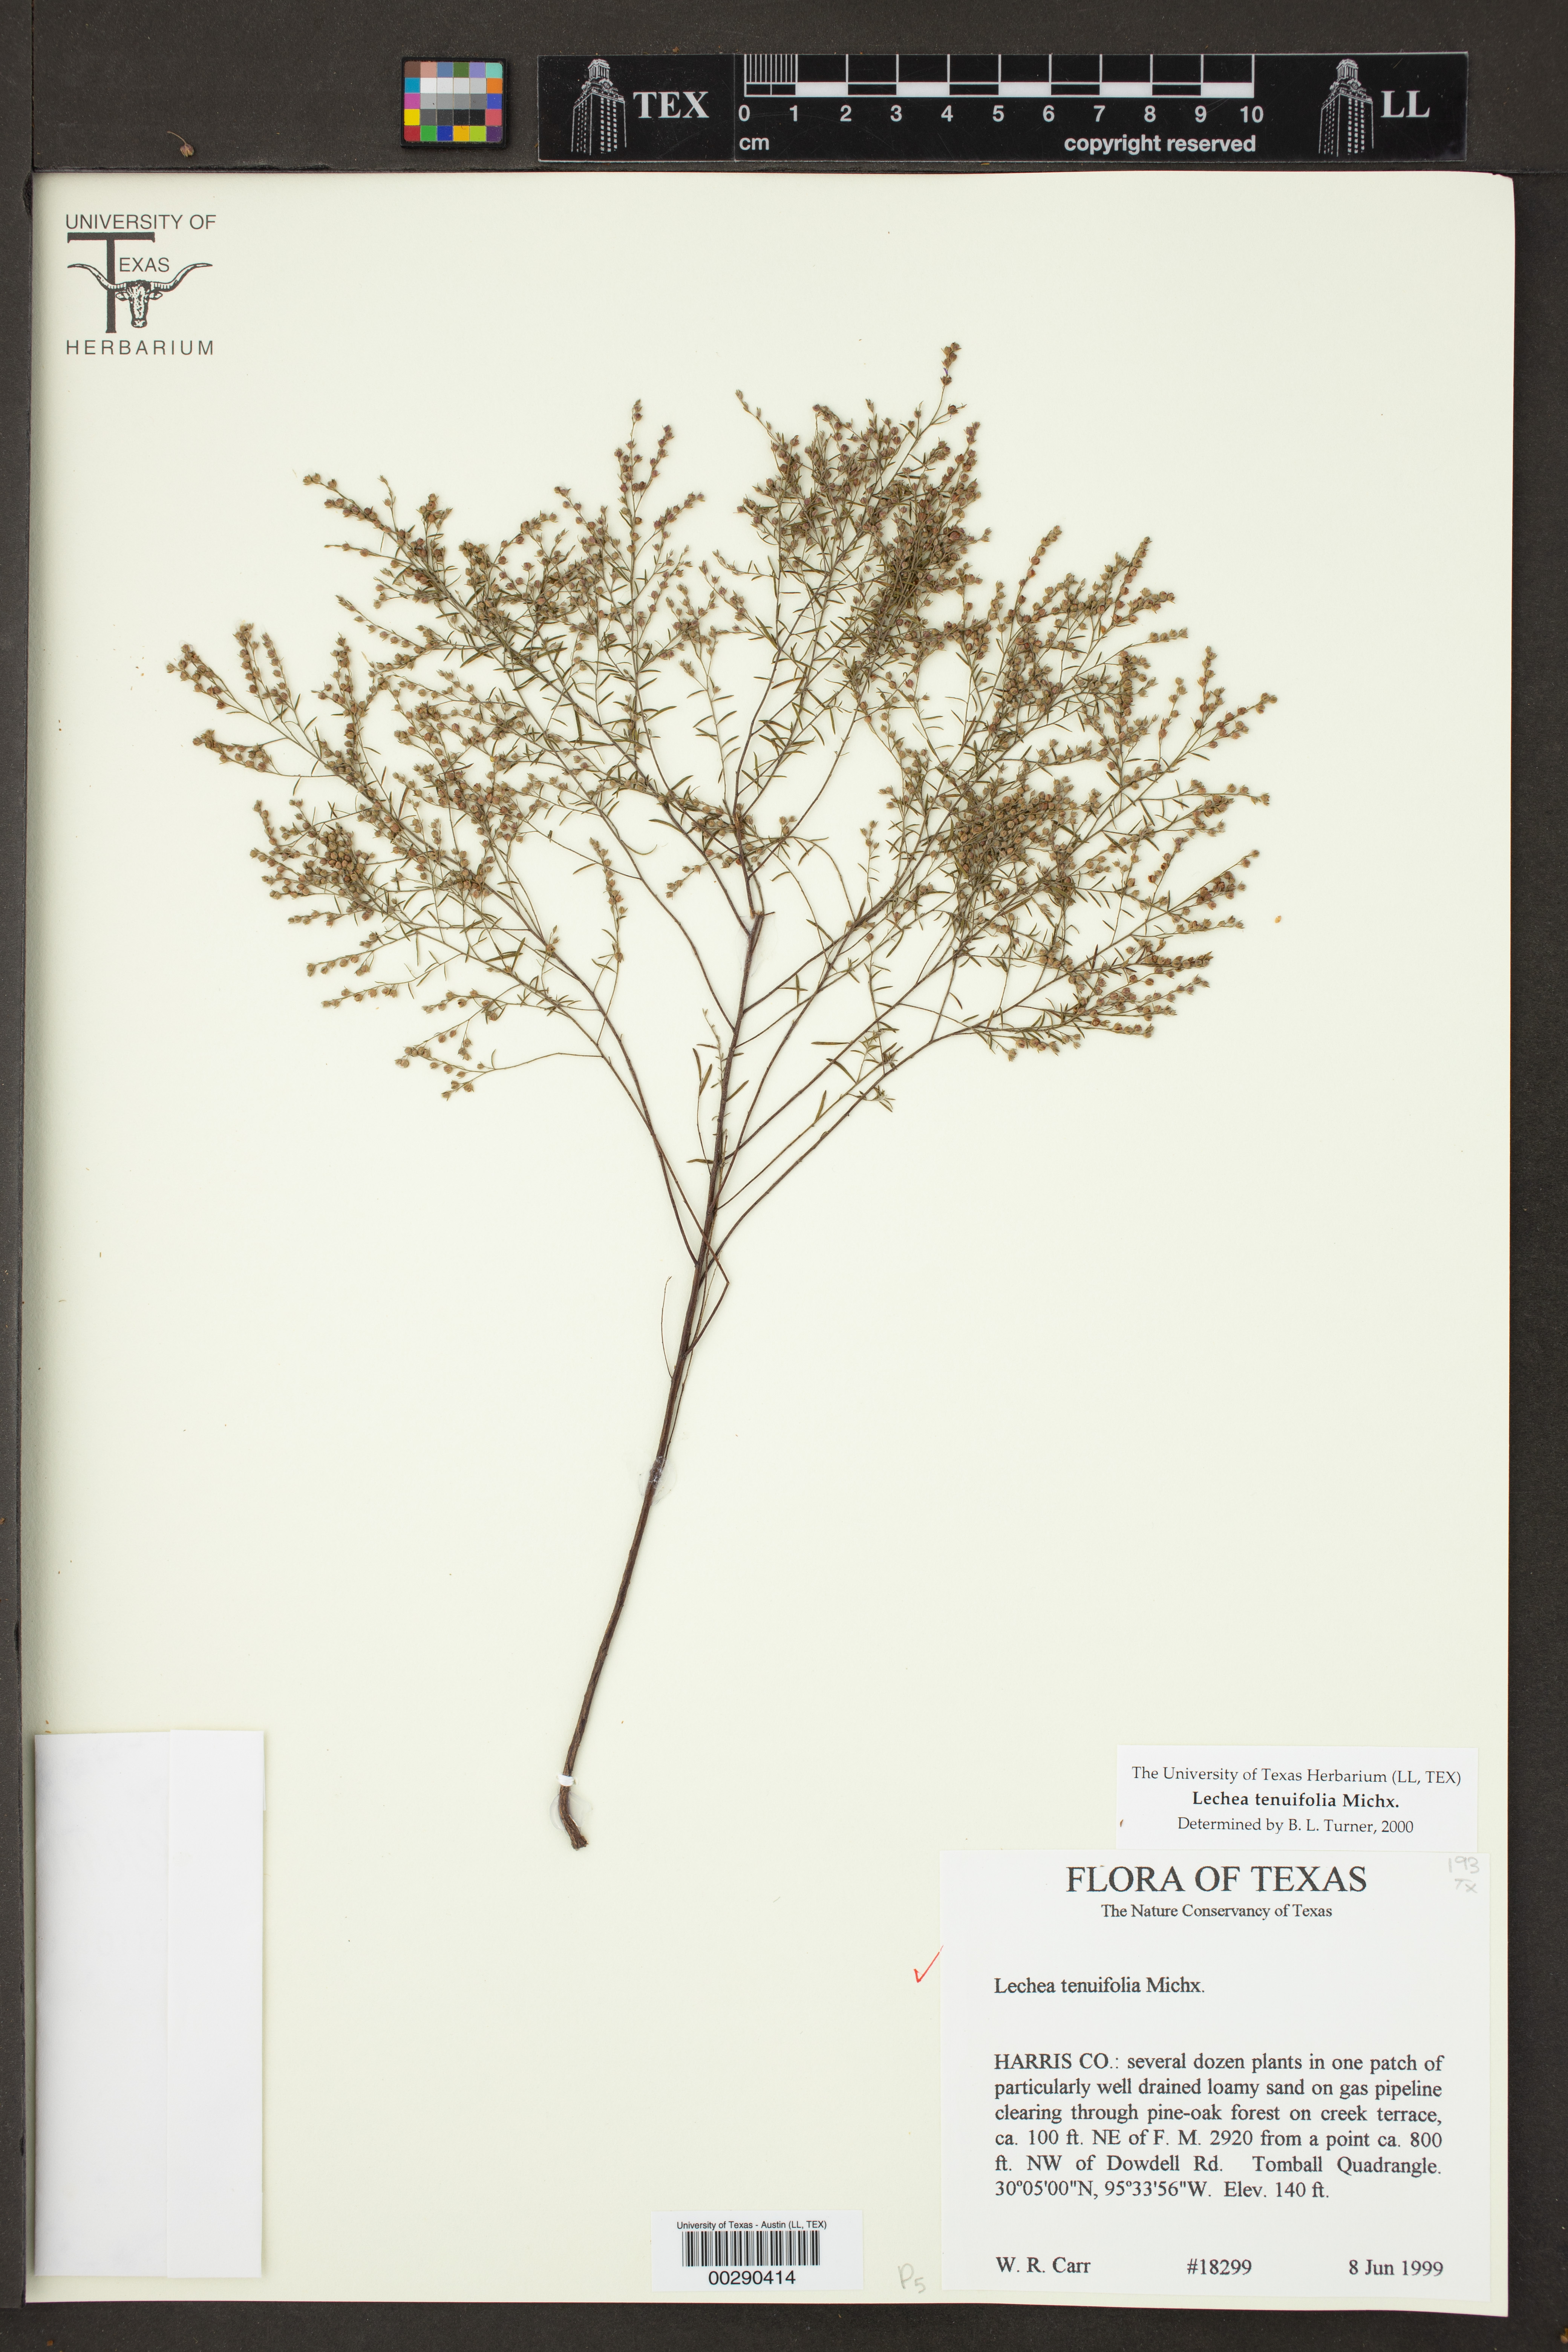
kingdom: Plantae
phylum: Tracheophyta
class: Magnoliopsida
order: Malvales
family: Cistaceae
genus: Lechea
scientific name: Lechea tenuifolia
